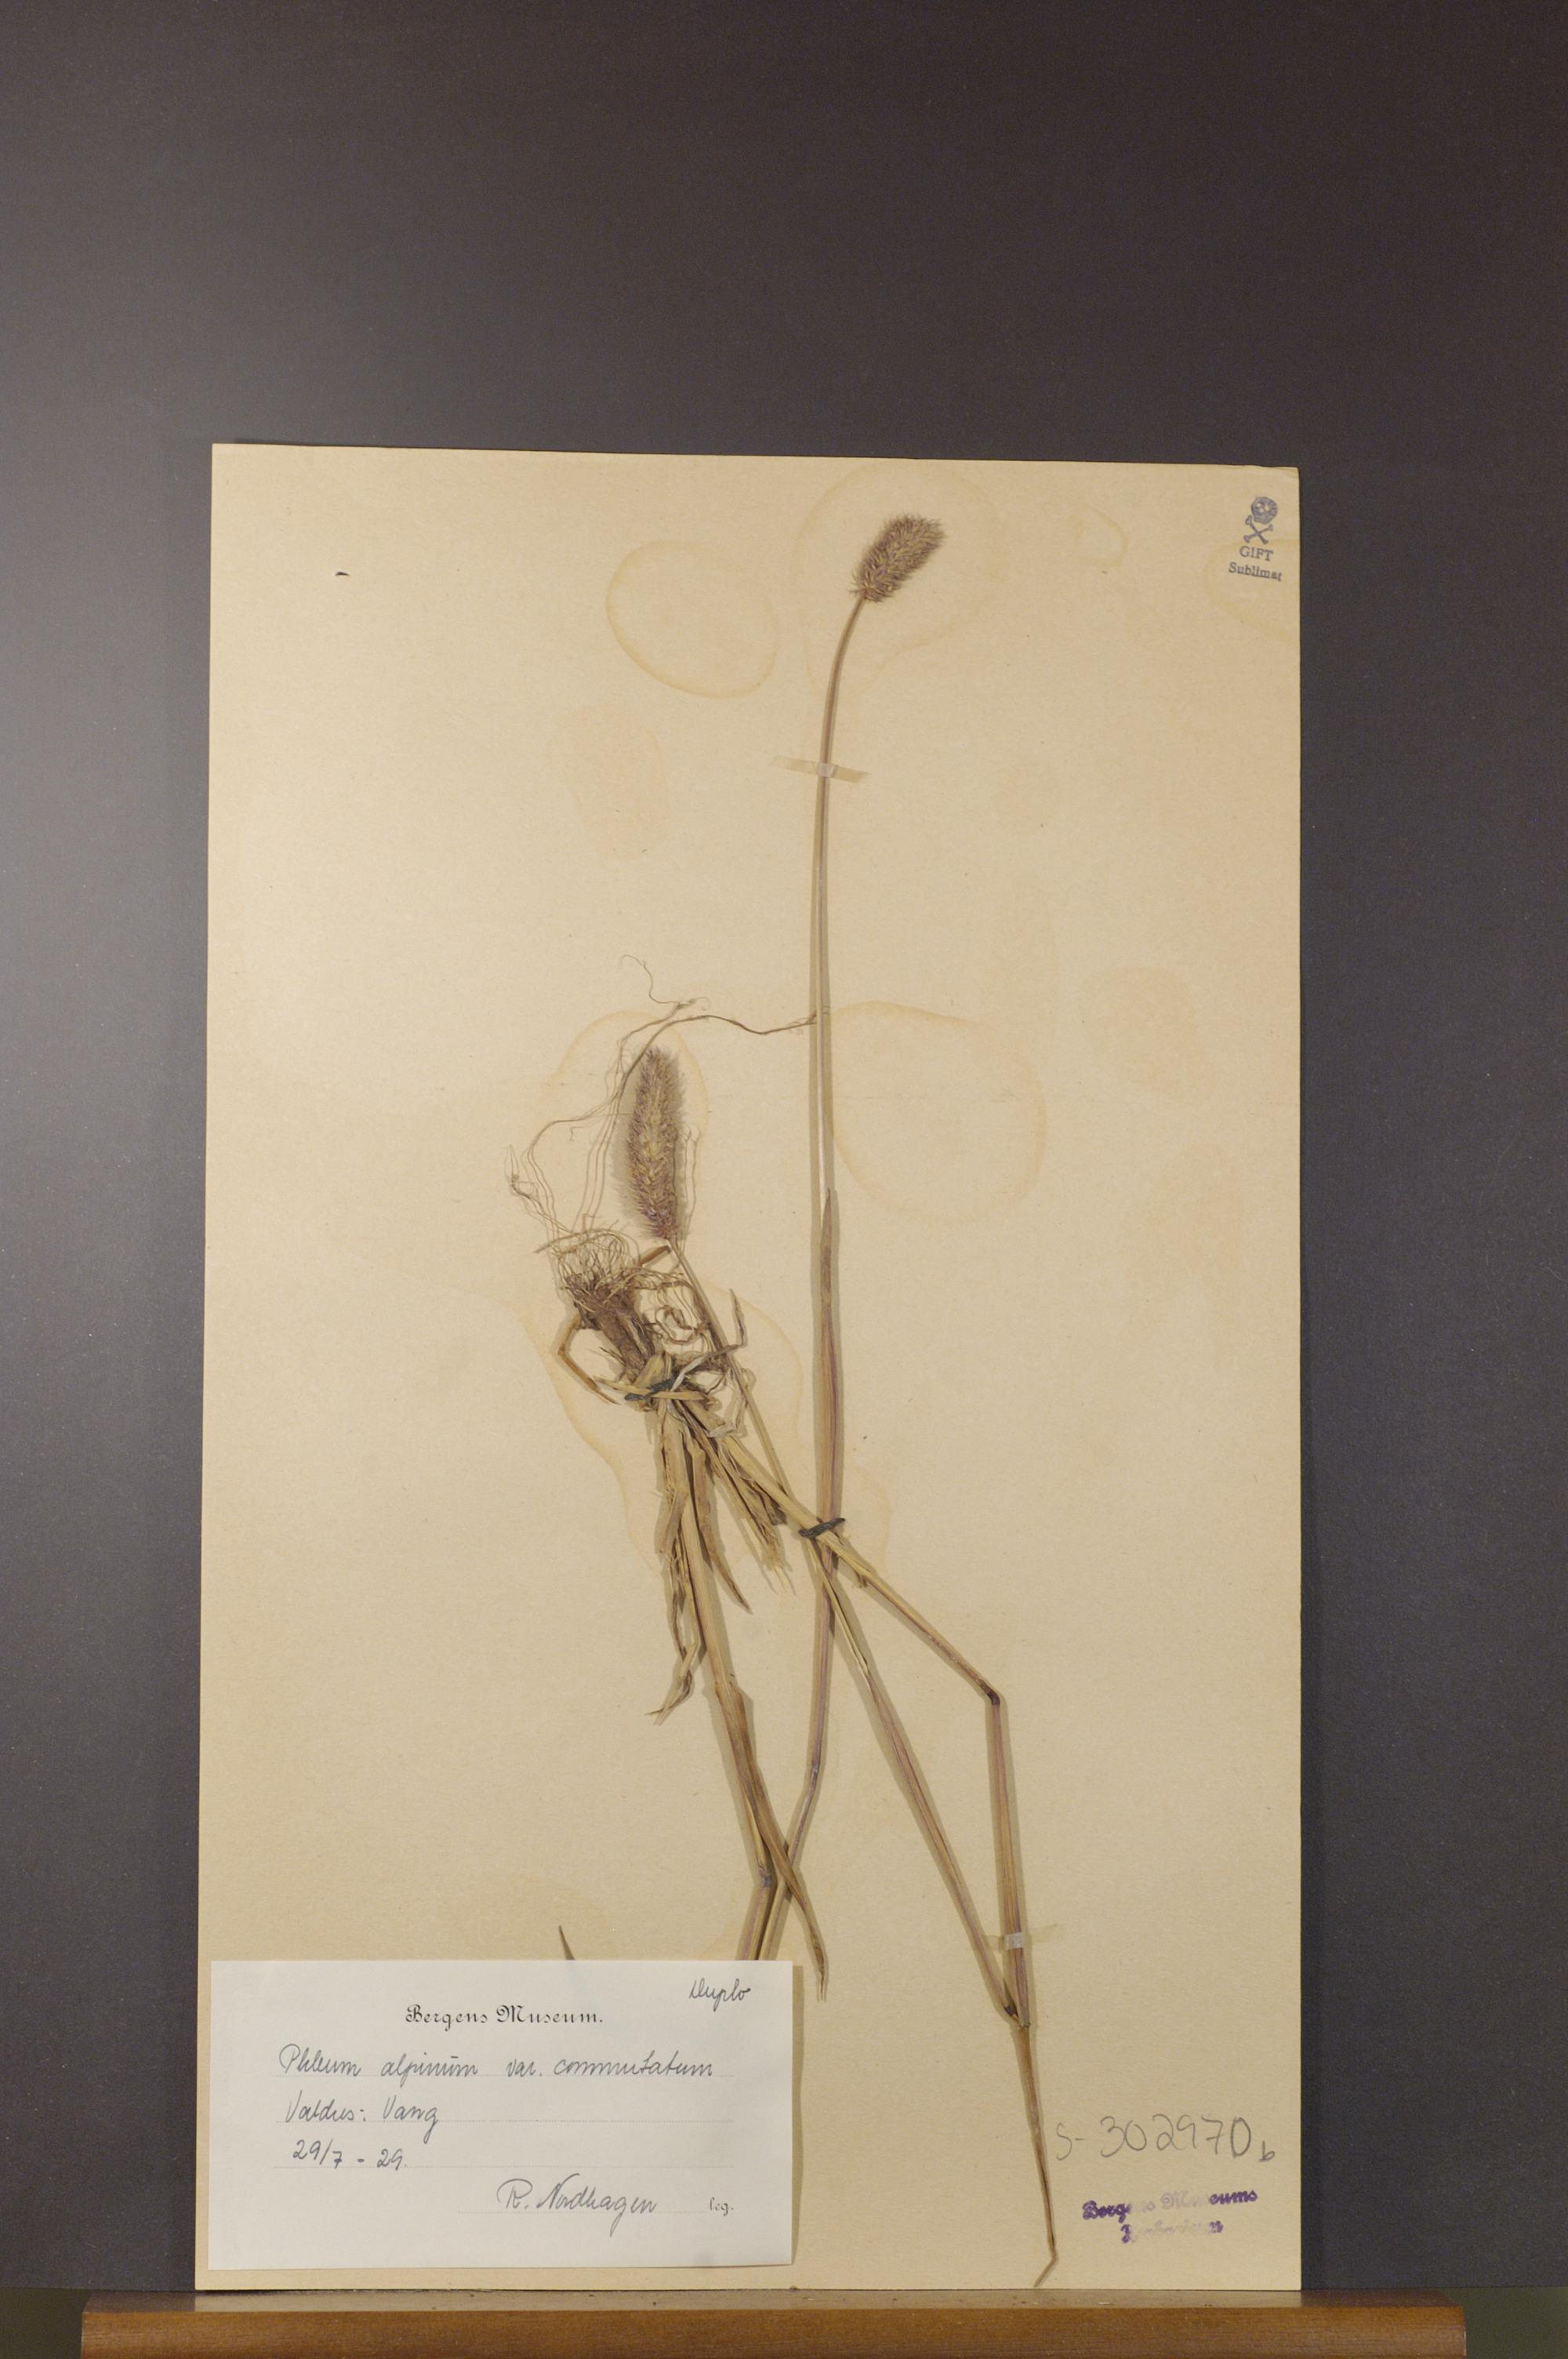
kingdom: Plantae
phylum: Tracheophyta
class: Liliopsida
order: Poales
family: Poaceae
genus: Phleum
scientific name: Phleum alpinum
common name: Alpine cat's-tail
